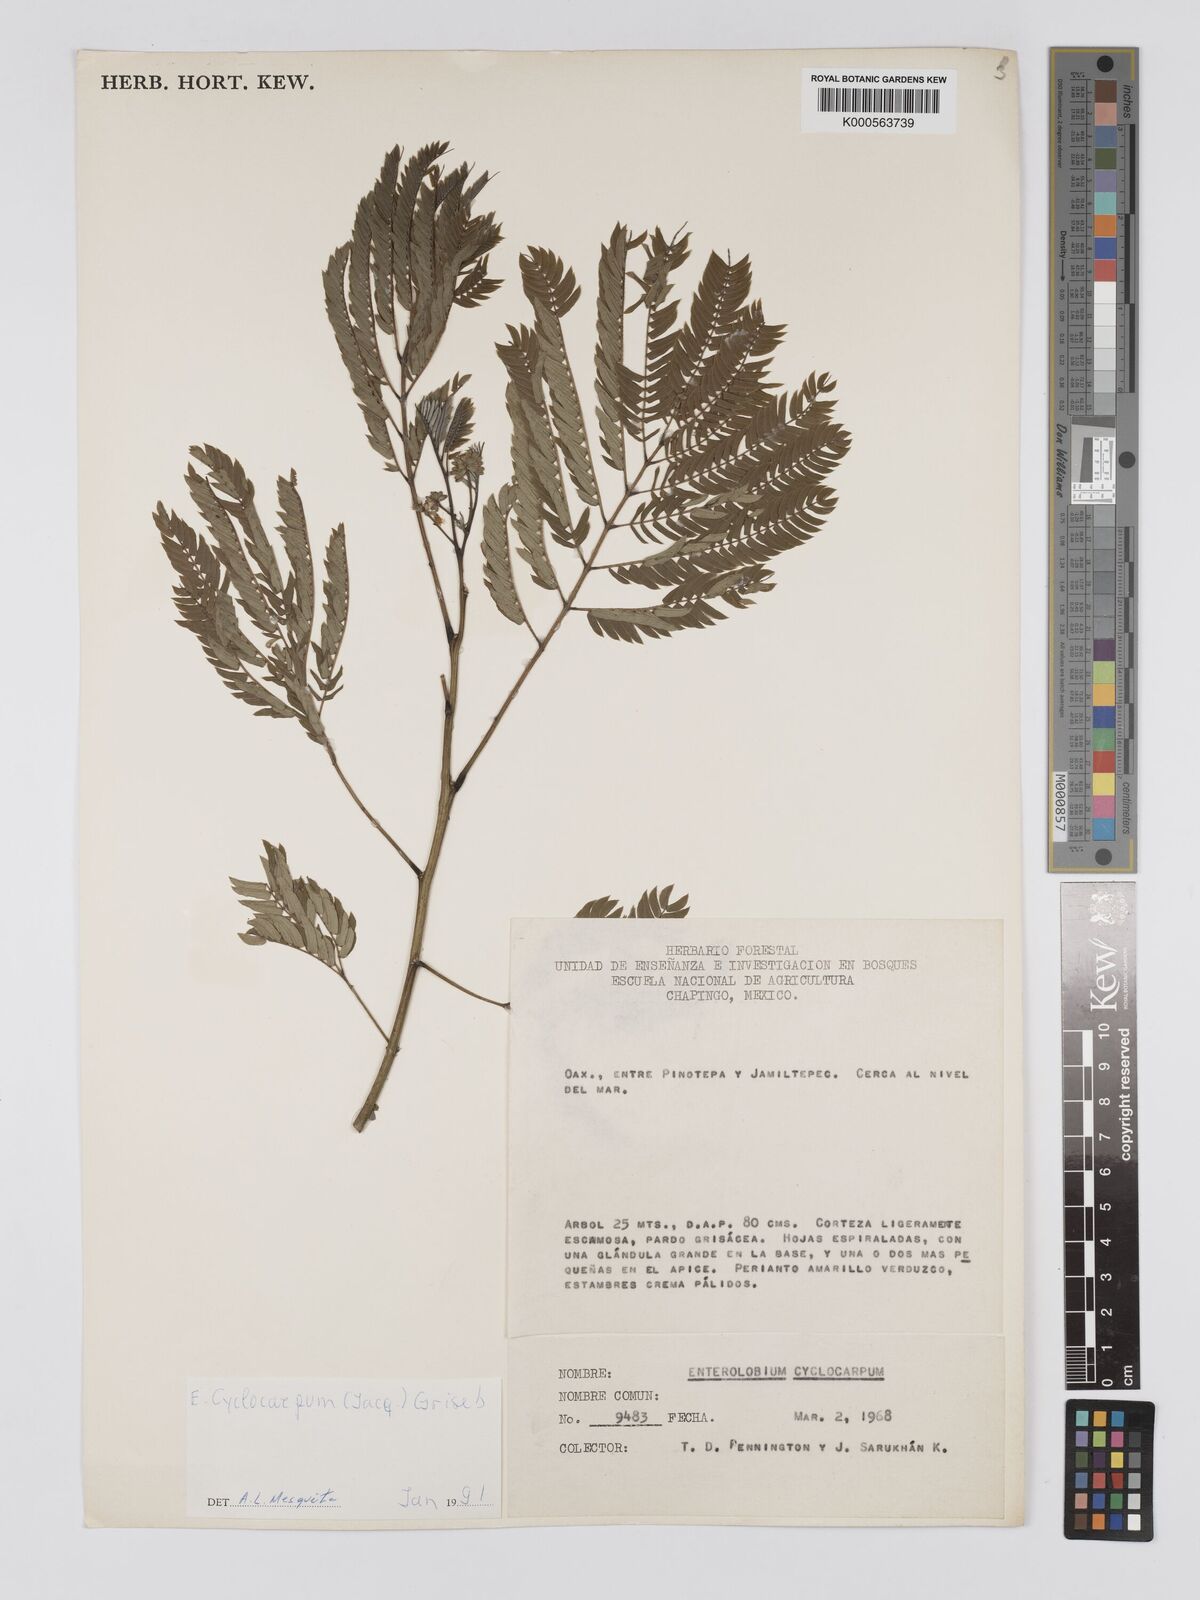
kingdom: Plantae
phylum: Tracheophyta
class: Magnoliopsida
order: Fabales
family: Fabaceae
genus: Enterolobium
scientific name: Enterolobium cyclocarpum
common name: Ear tree
